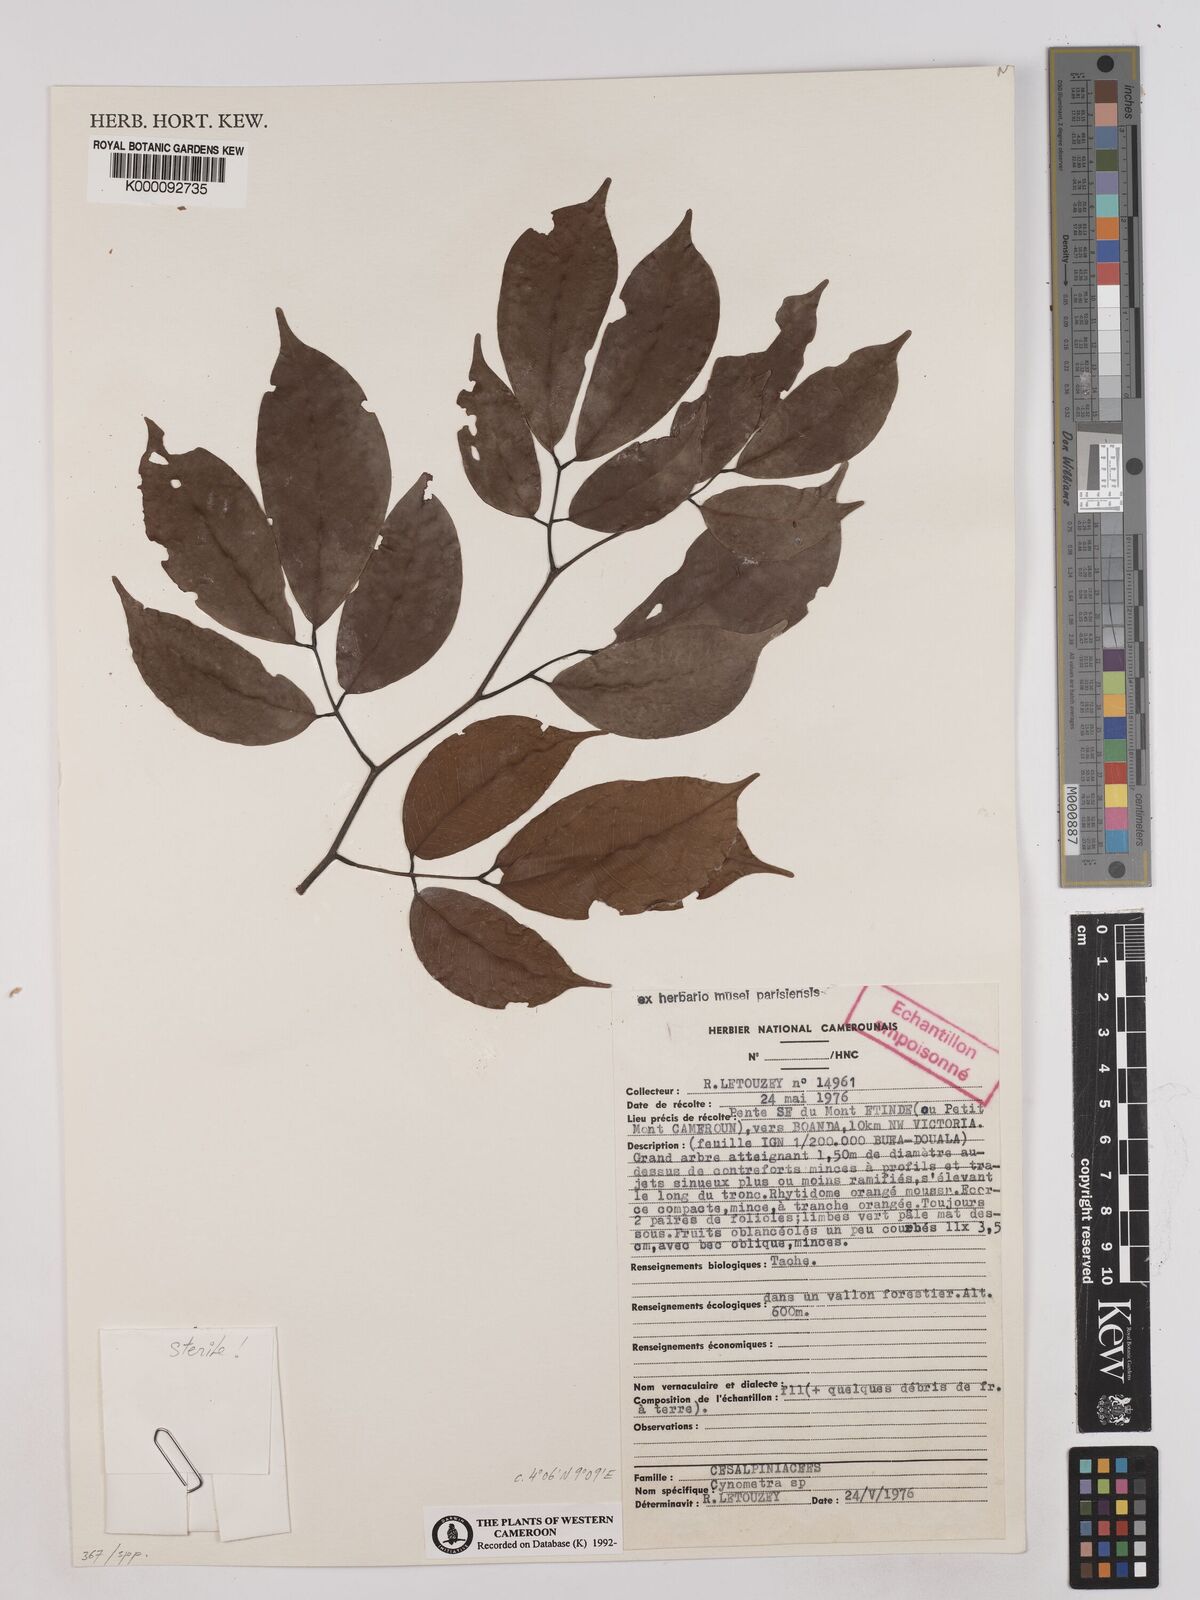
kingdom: Plantae
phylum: Tracheophyta
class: Magnoliopsida
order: Fabales
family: Fabaceae
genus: Cynometra
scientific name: Cynometra
